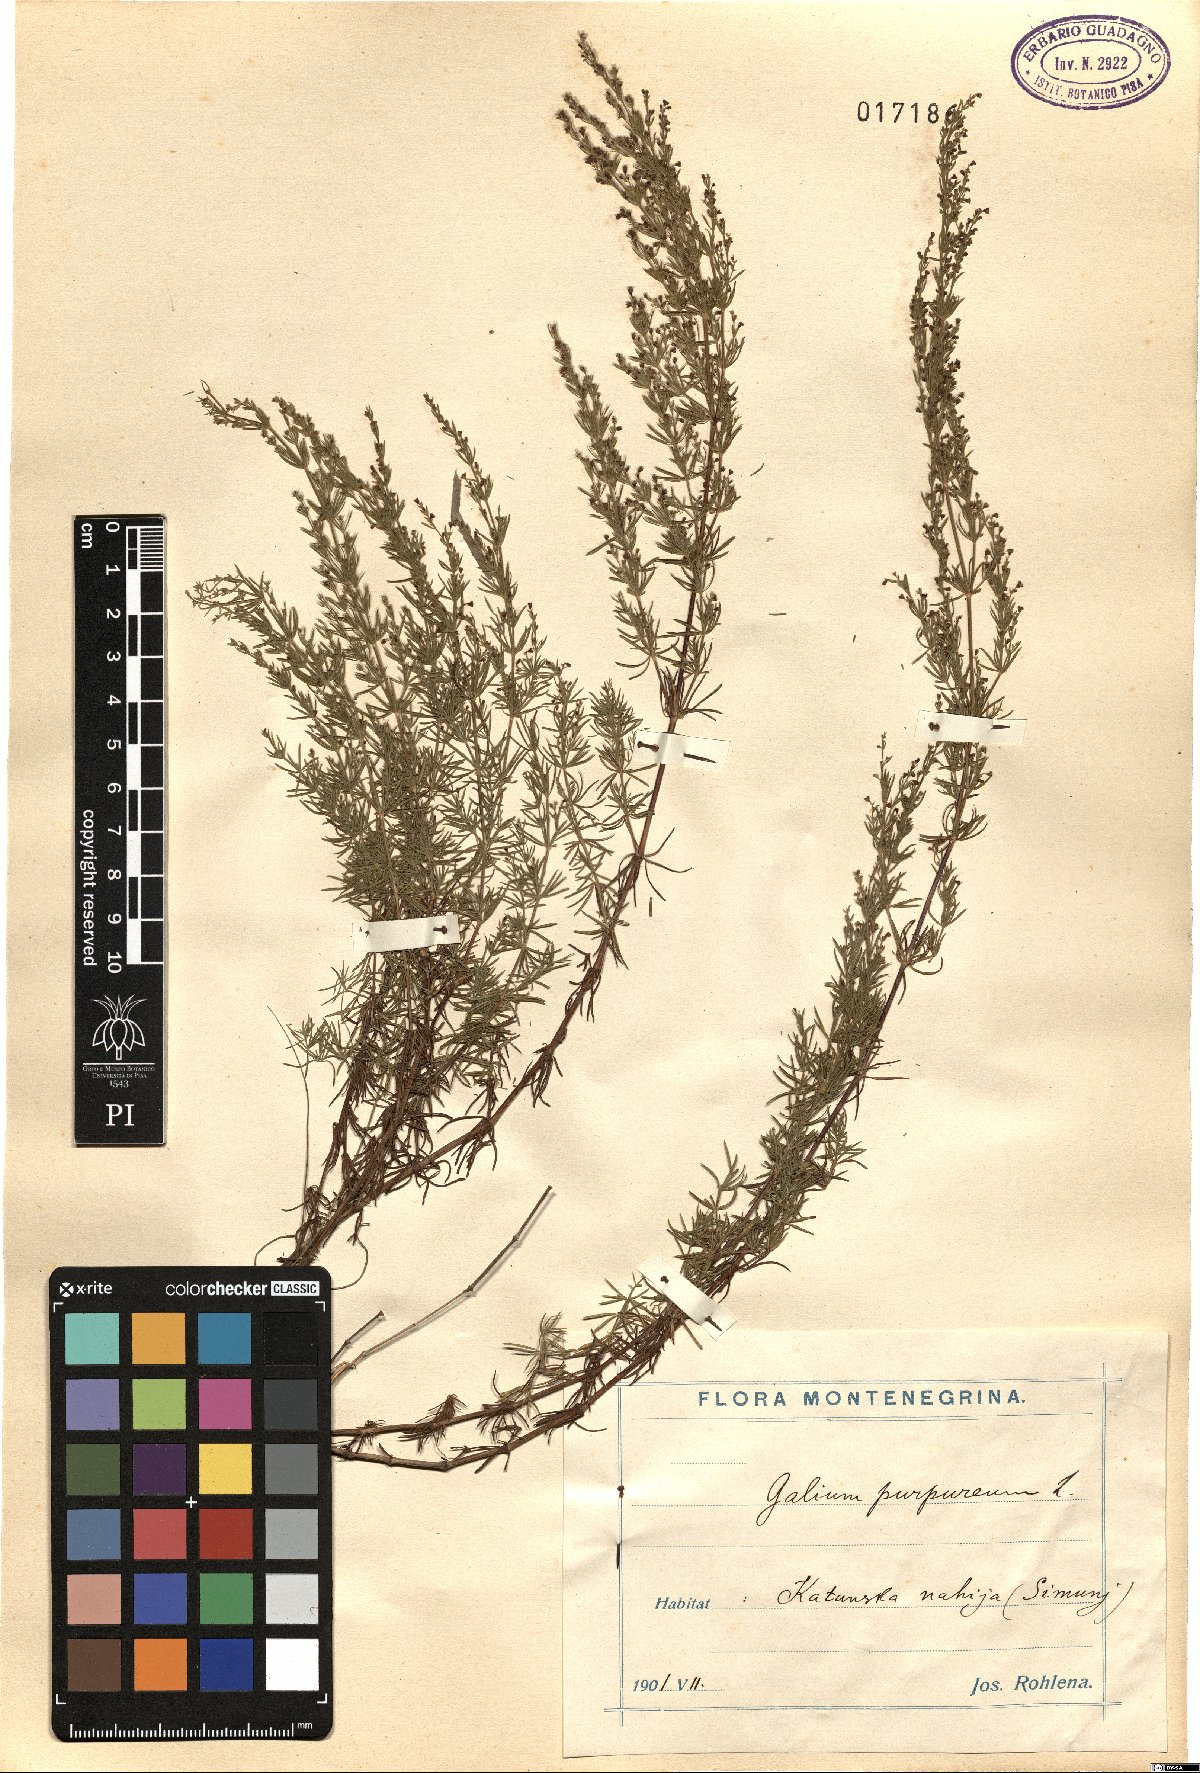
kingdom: Plantae
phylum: Tracheophyta
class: Magnoliopsida
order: Gentianales
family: Rubiaceae
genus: Thliphthisa
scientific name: Thliphthisa purpurea
